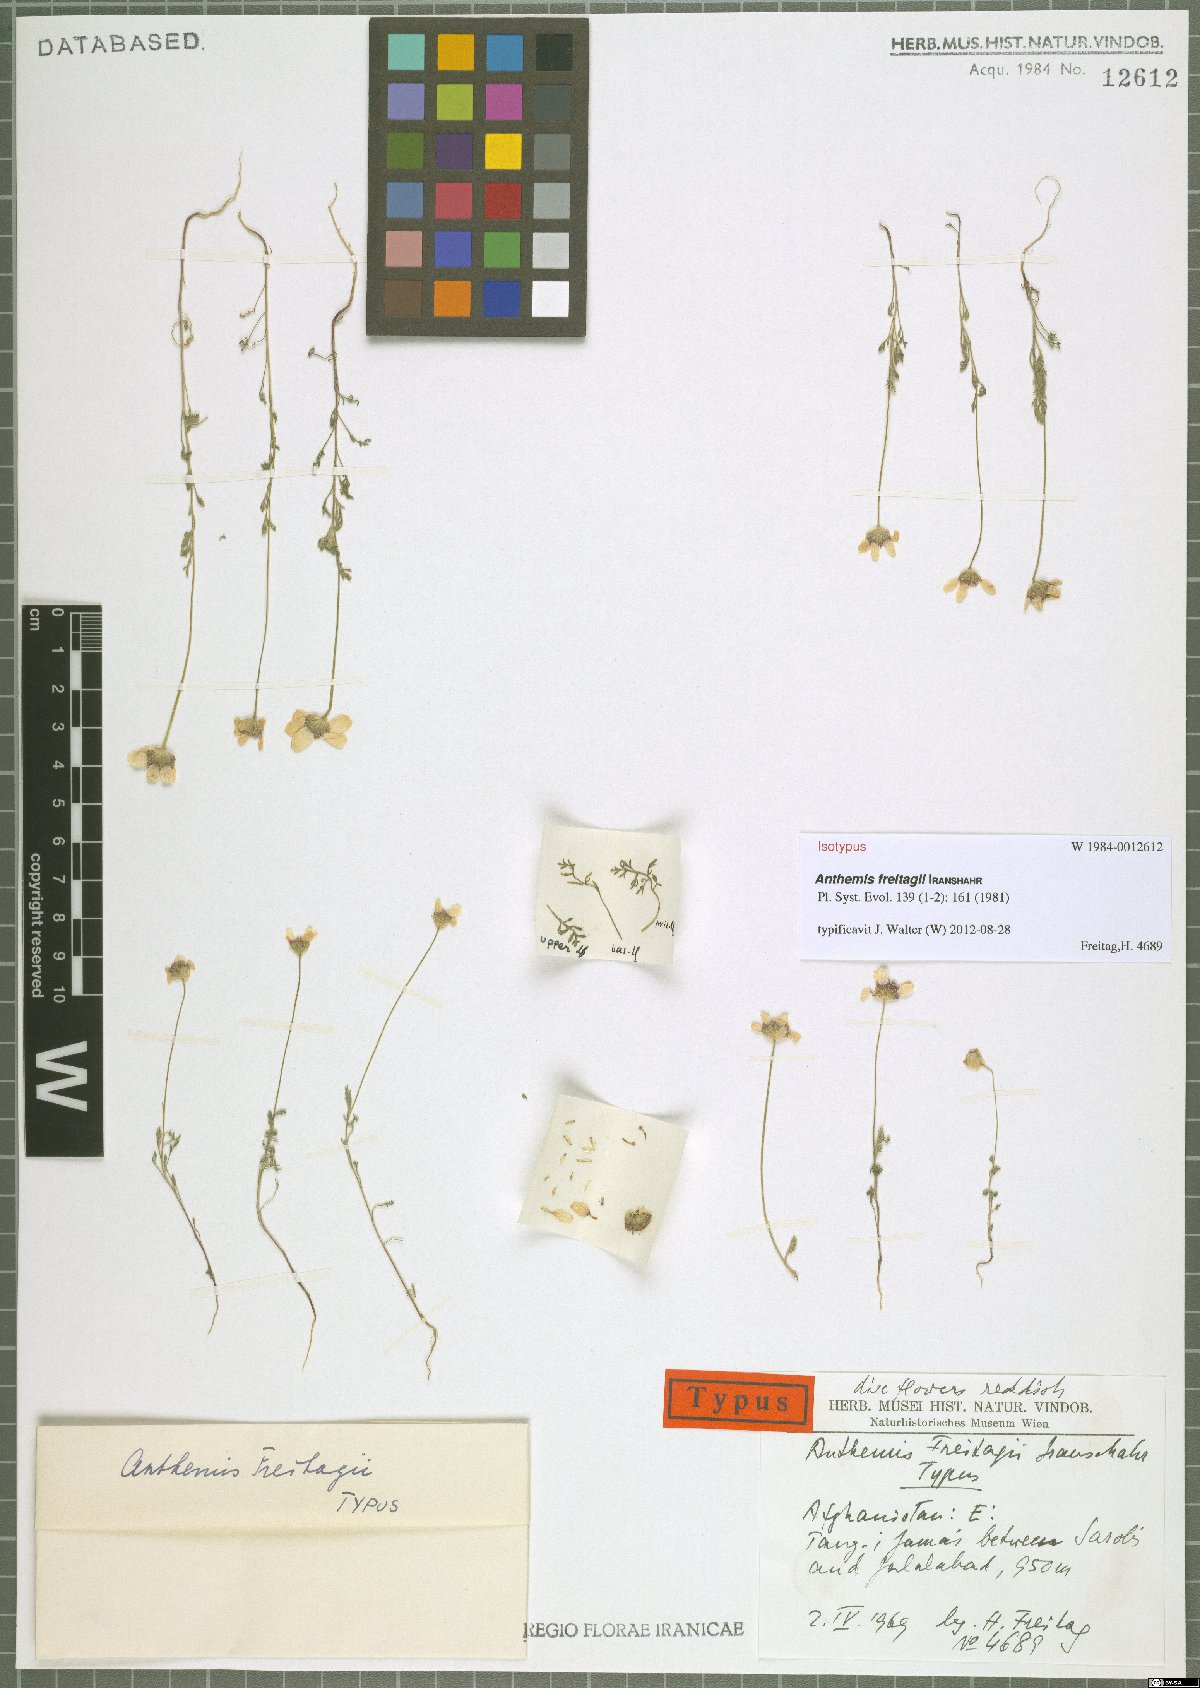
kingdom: Plantae
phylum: Tracheophyta
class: Magnoliopsida
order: Asterales
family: Asteraceae
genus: Anthemis
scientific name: Anthemis freitagii
